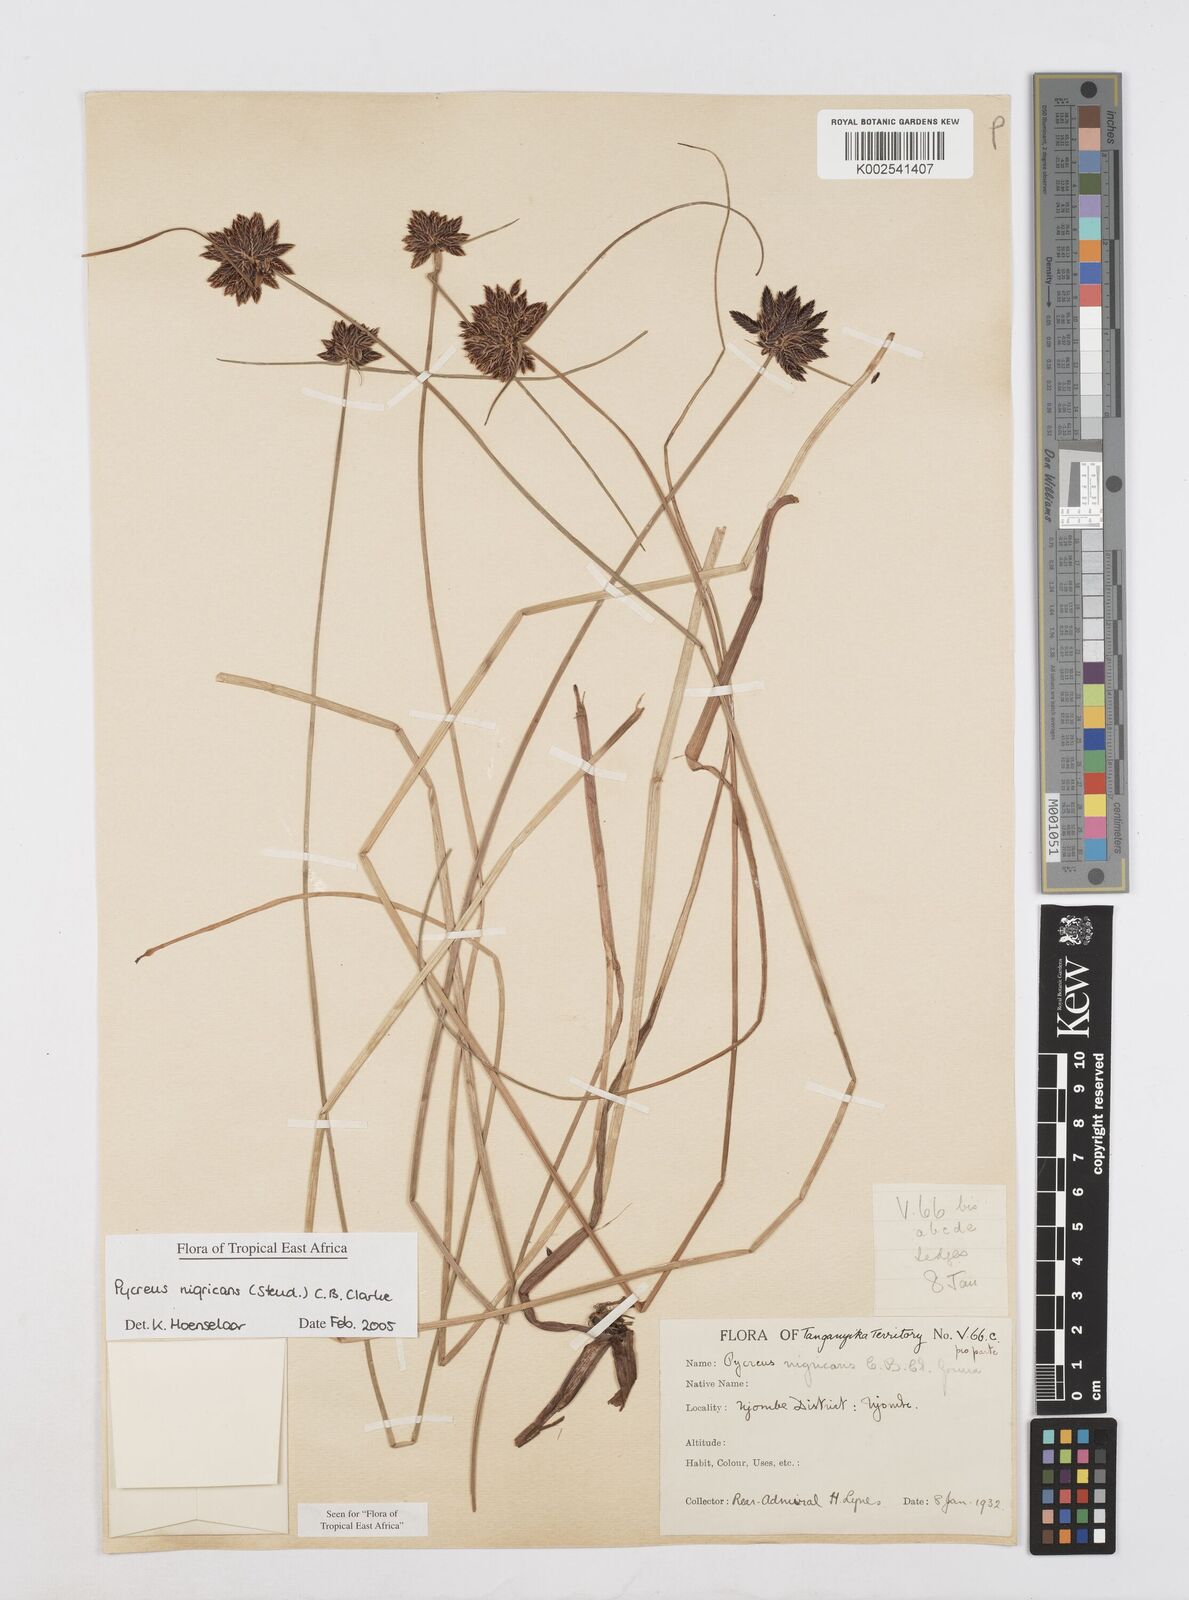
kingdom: Plantae
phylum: Tracheophyta
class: Liliopsida
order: Poales
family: Cyperaceae
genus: Cyperus
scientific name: Cyperus nigricans
